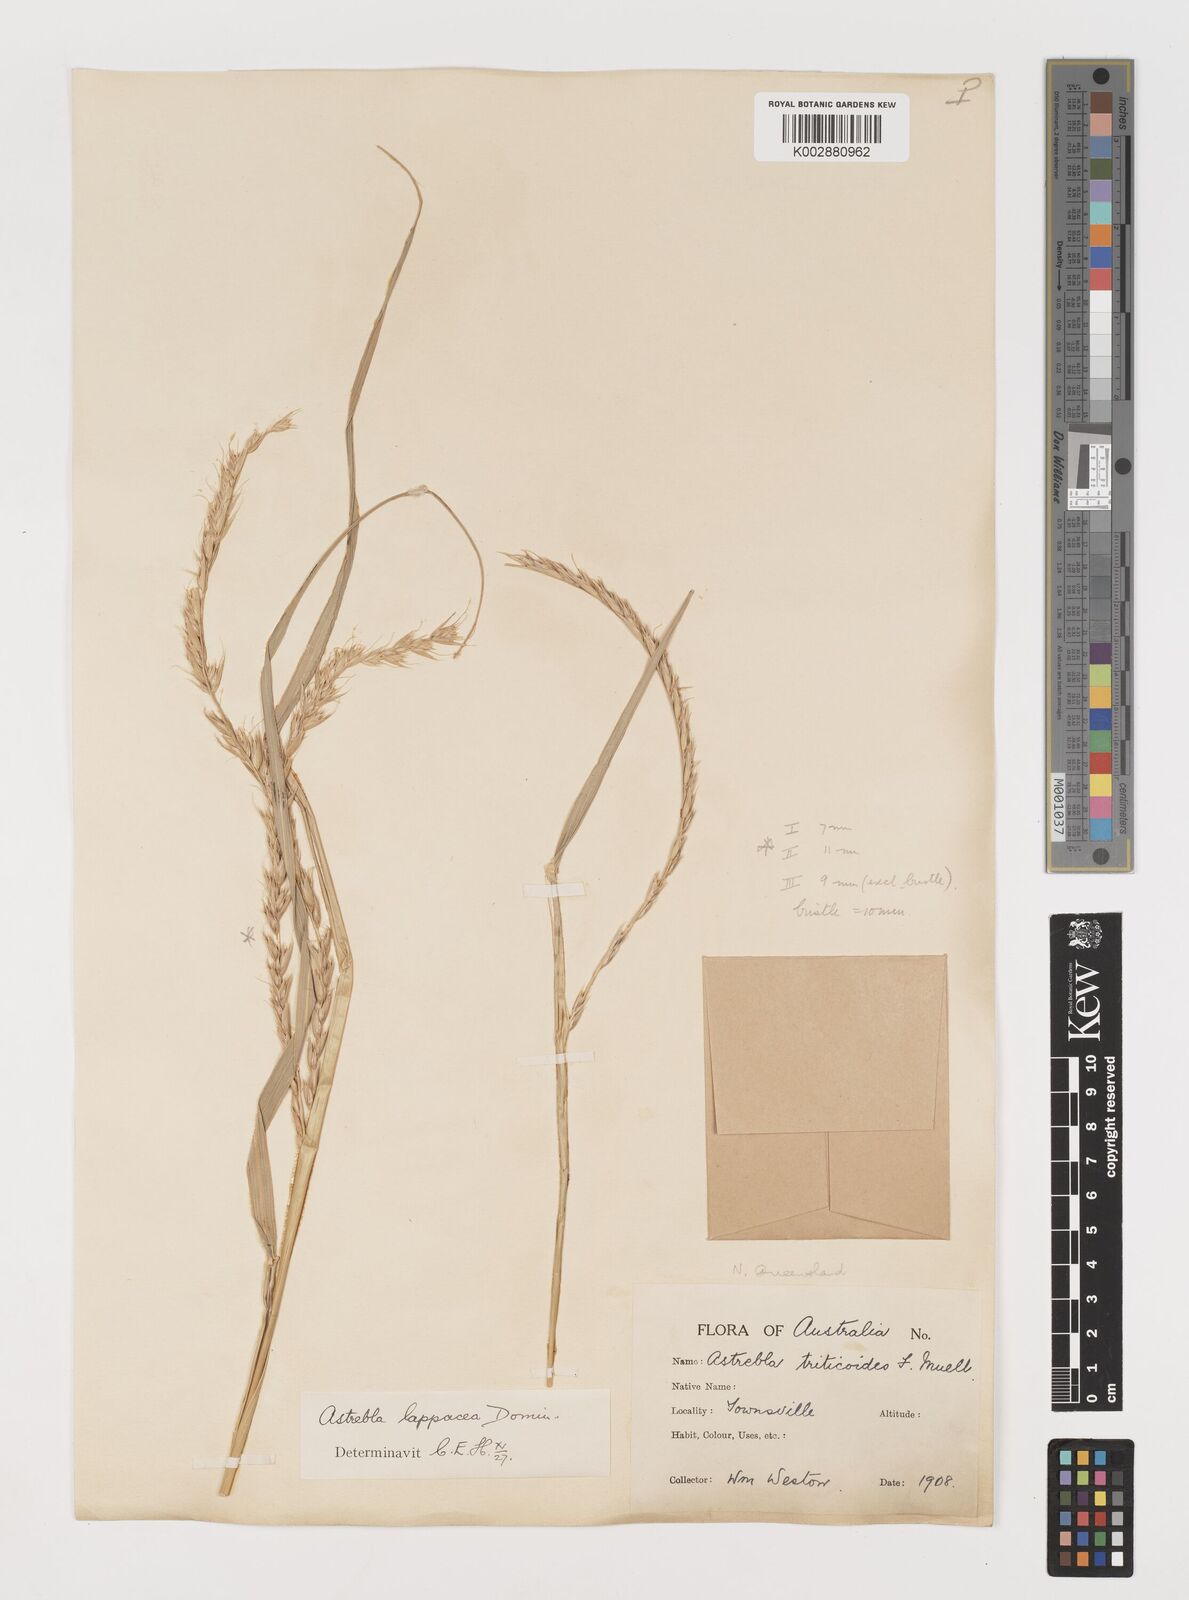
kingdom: Plantae
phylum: Tracheophyta
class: Liliopsida
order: Poales
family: Poaceae
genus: Astrebla
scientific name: Astrebla lappacea
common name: Curly mitchell grass
